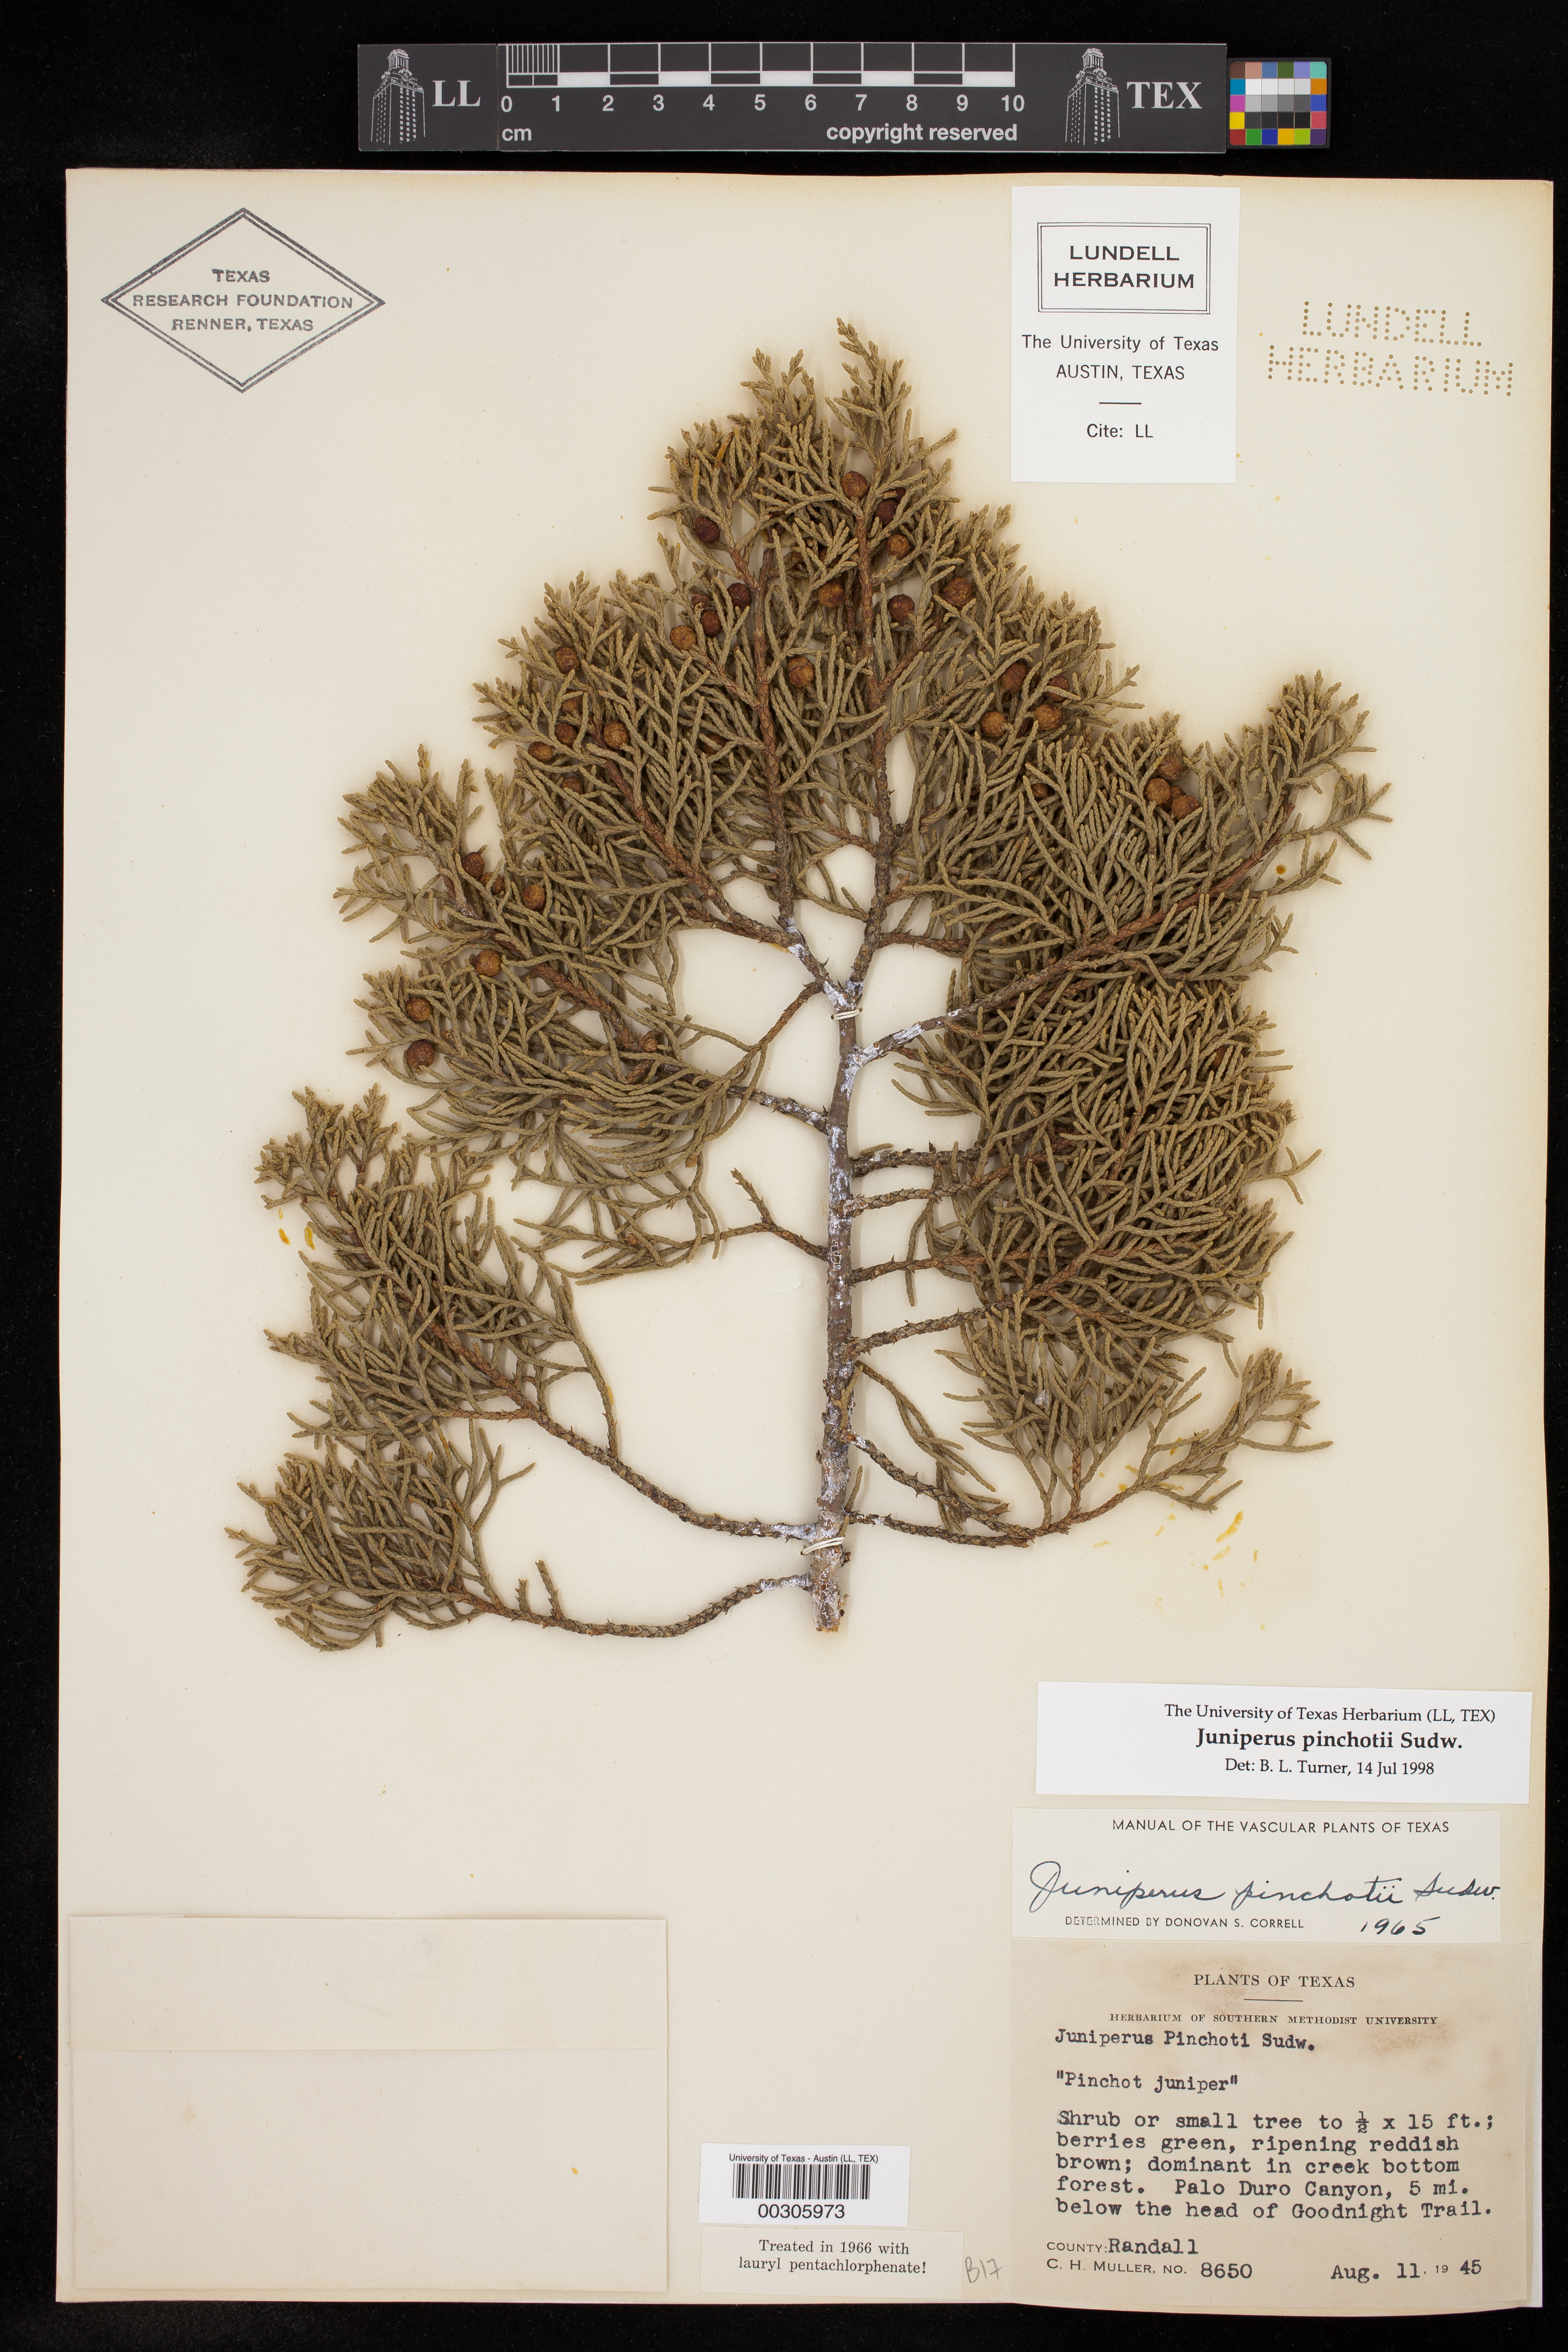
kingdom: Plantae
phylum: Tracheophyta
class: Pinopsida
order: Pinales
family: Cupressaceae
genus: Juniperus
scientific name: Juniperus pinchotii
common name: Pinchot juniper
